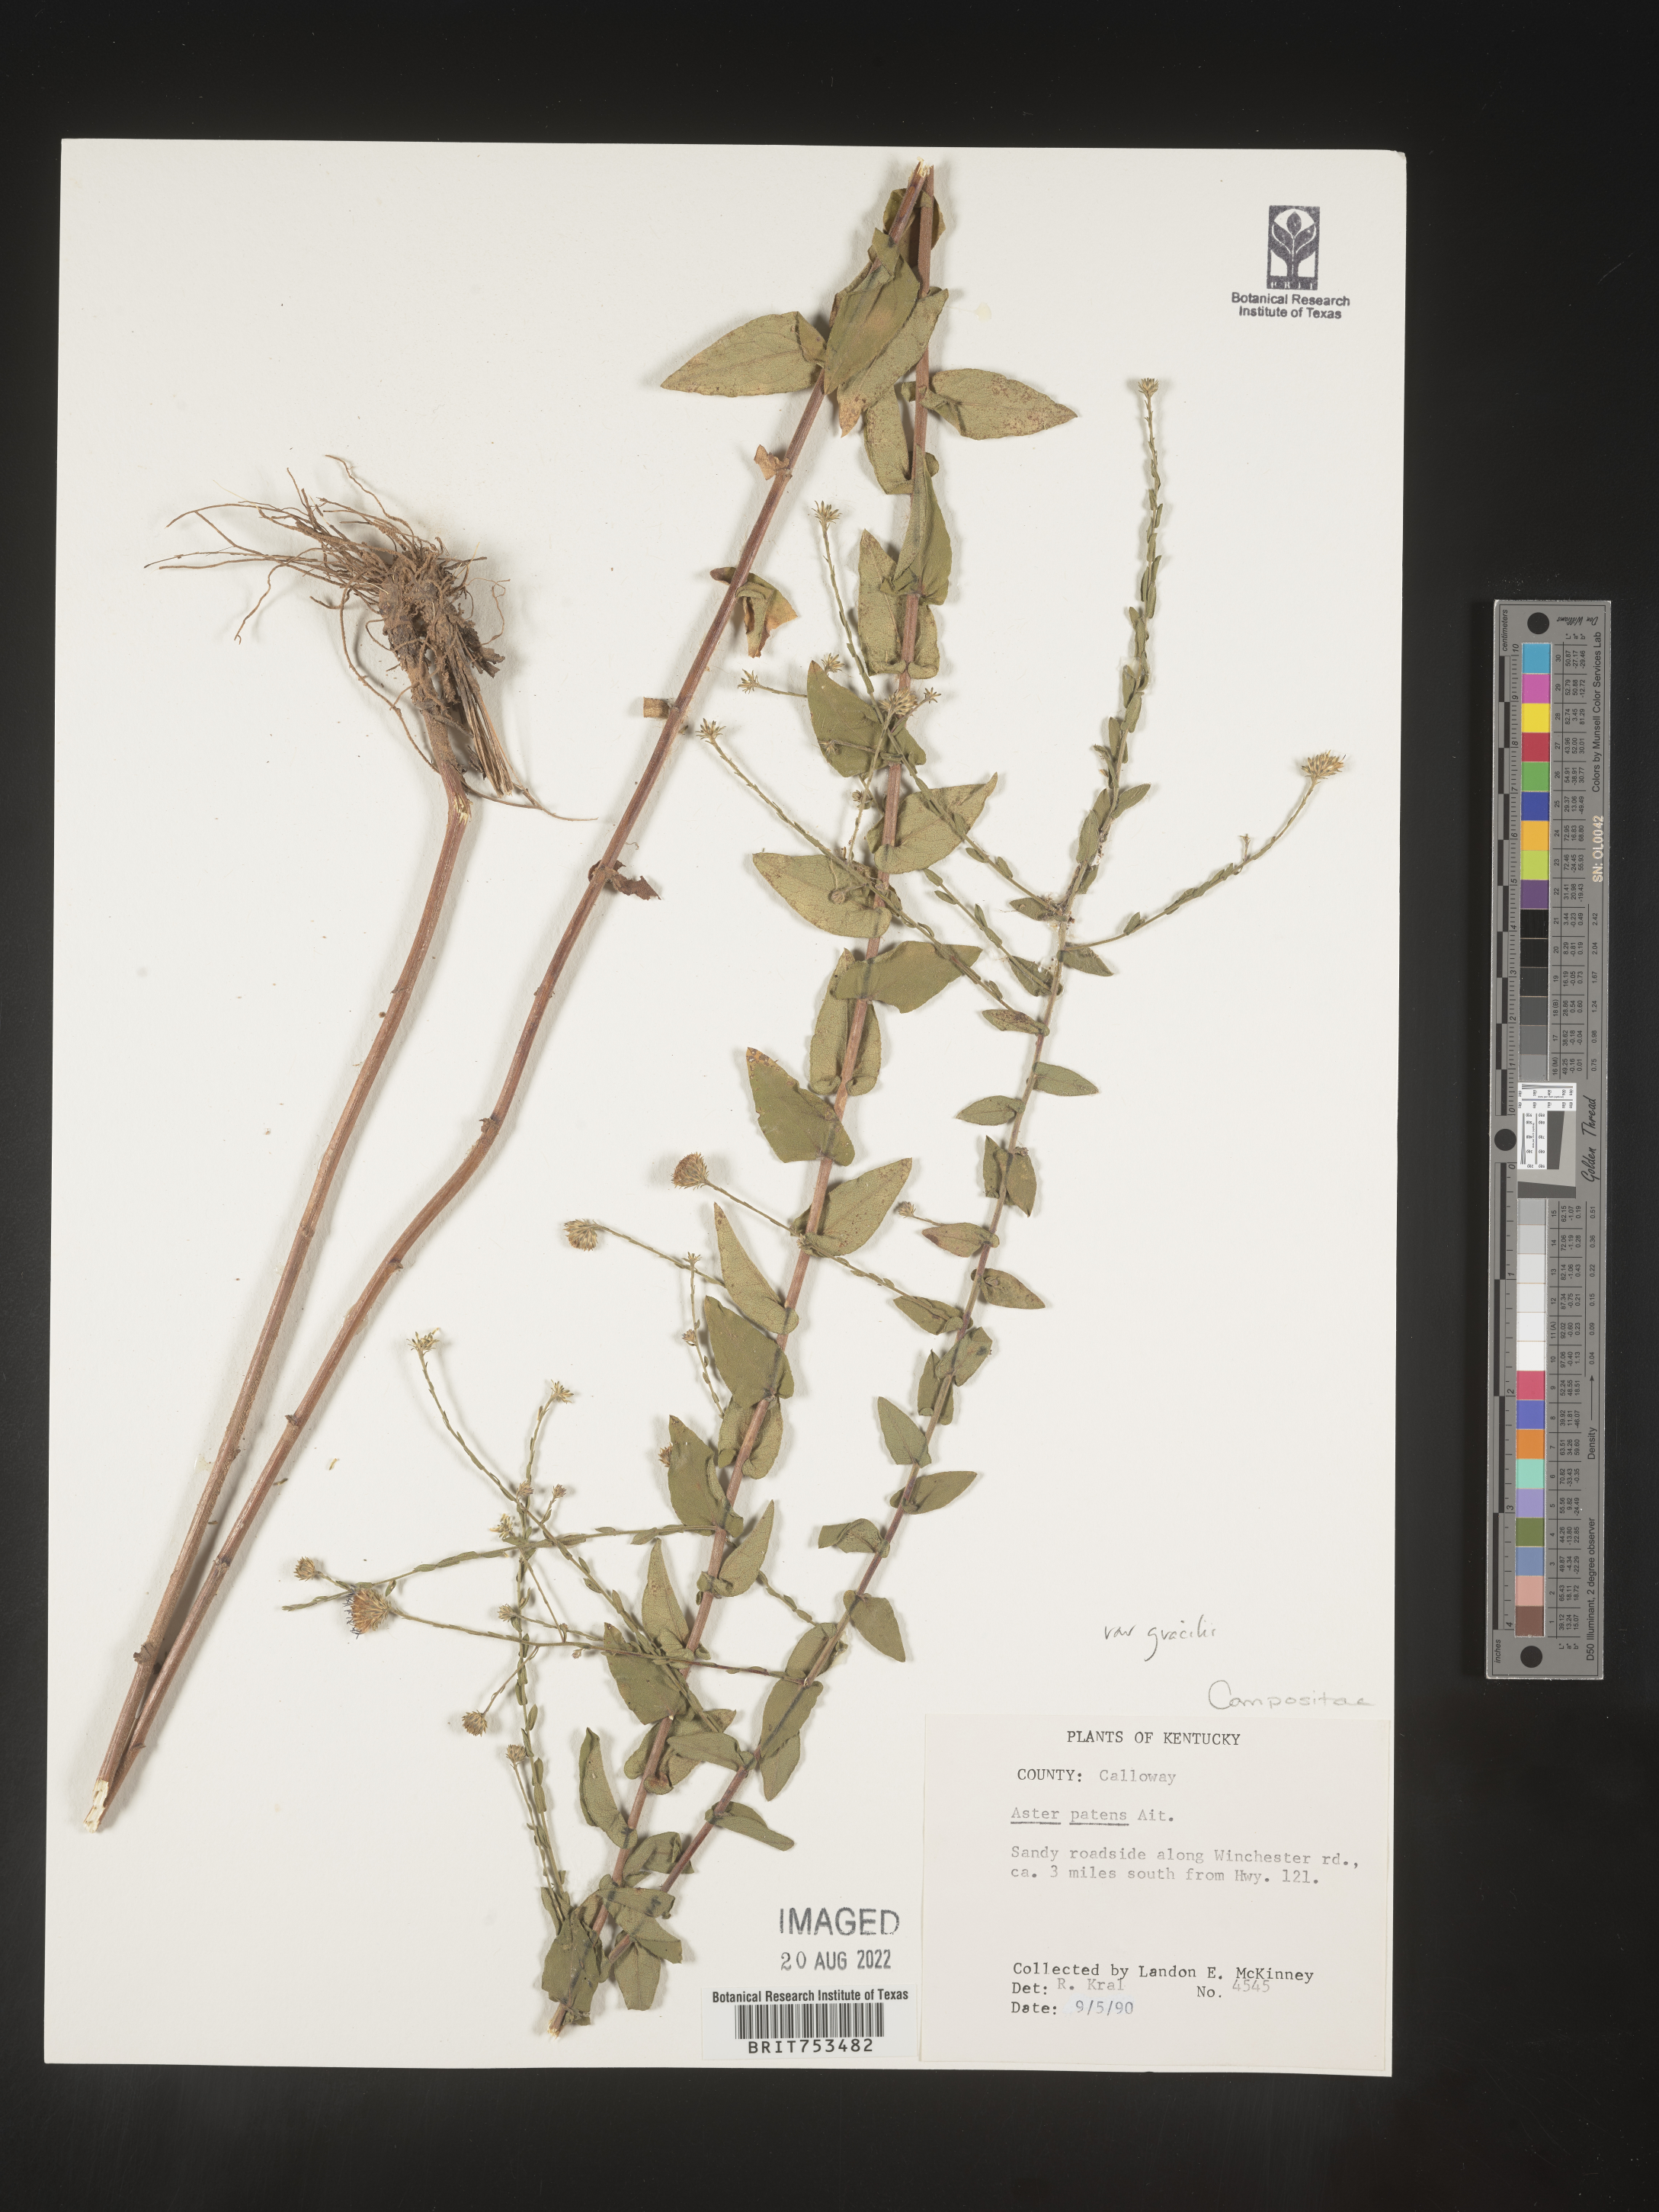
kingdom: Plantae
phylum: Tracheophyta
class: Magnoliopsida
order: Asterales
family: Asteraceae
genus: Symphyotrichum
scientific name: Symphyotrichum patens
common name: Late purple aster
